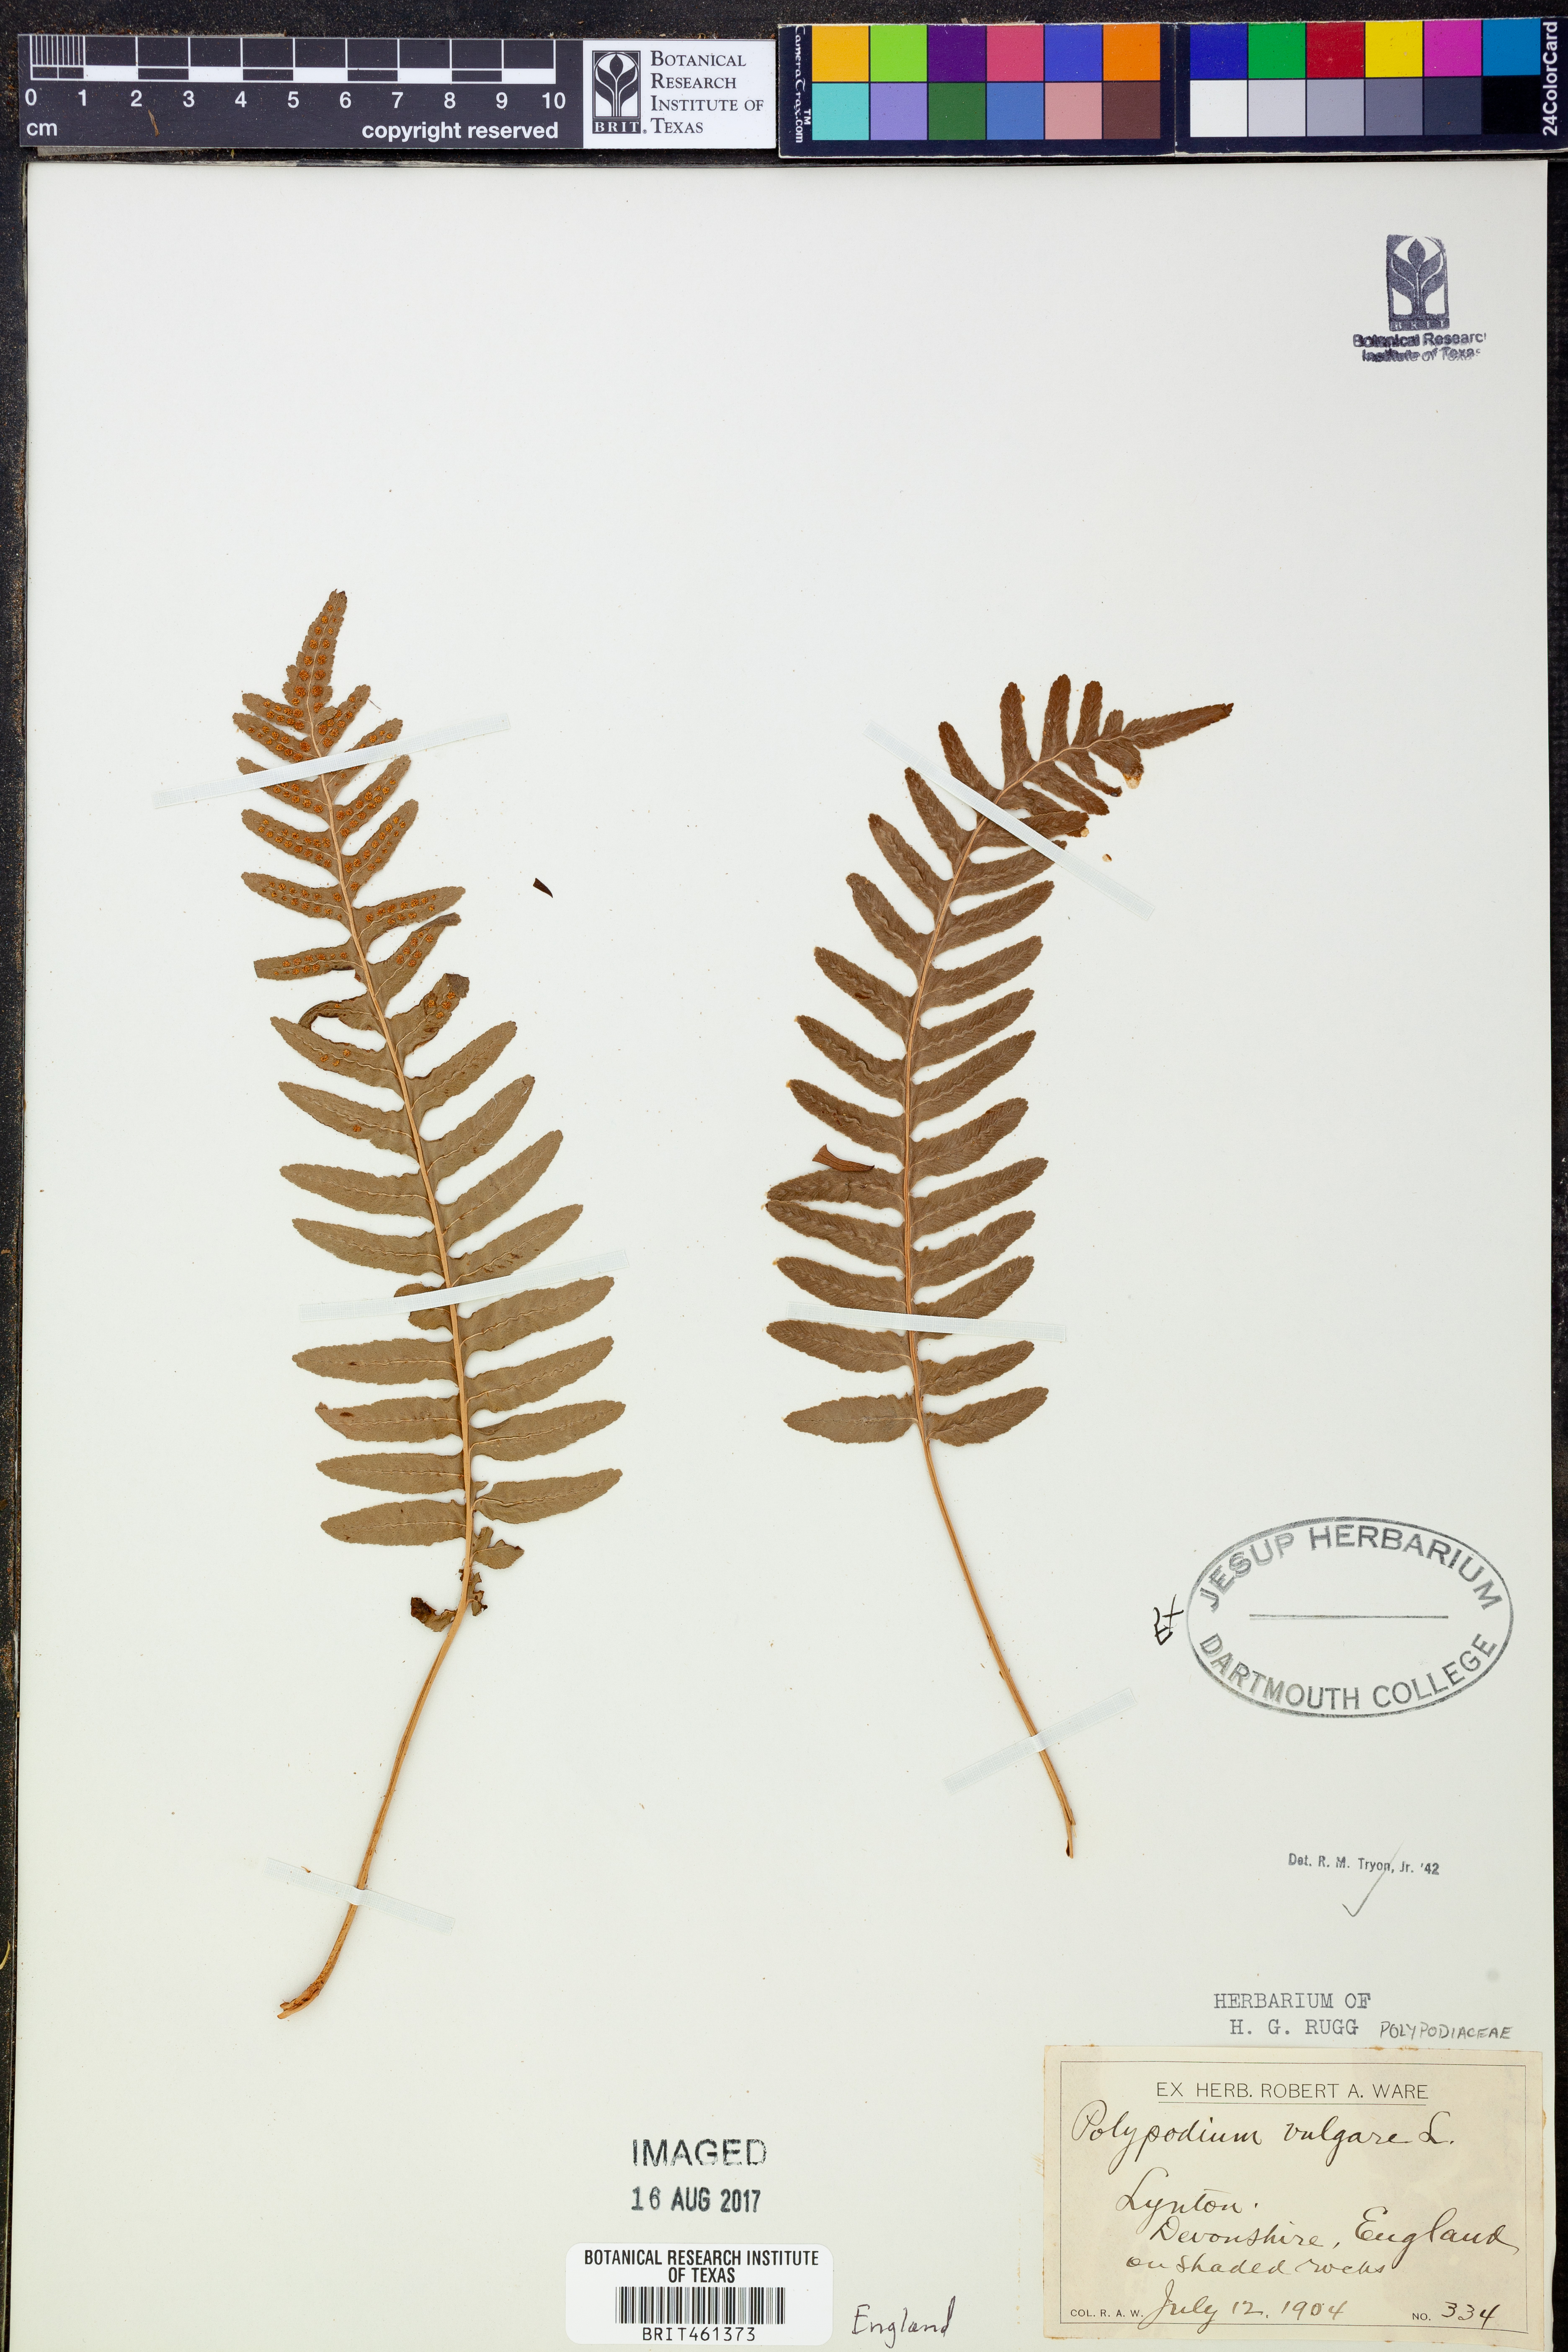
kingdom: Plantae
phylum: Tracheophyta
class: Polypodiopsida
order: Polypodiales
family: Polypodiaceae
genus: Polypodium
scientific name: Polypodium vulgare
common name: Common polypody
